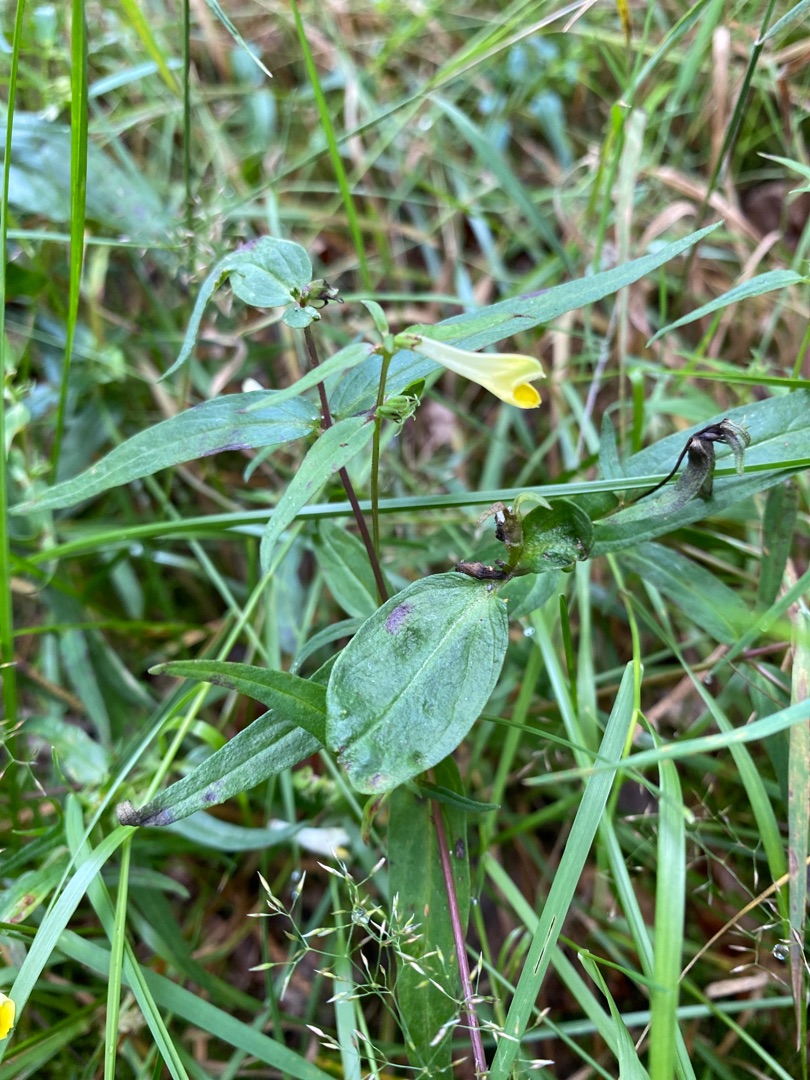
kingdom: Plantae
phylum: Tracheophyta
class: Magnoliopsida
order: Lamiales
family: Orobanchaceae
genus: Melampyrum
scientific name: Melampyrum pratense
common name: Almindelig kohvede
